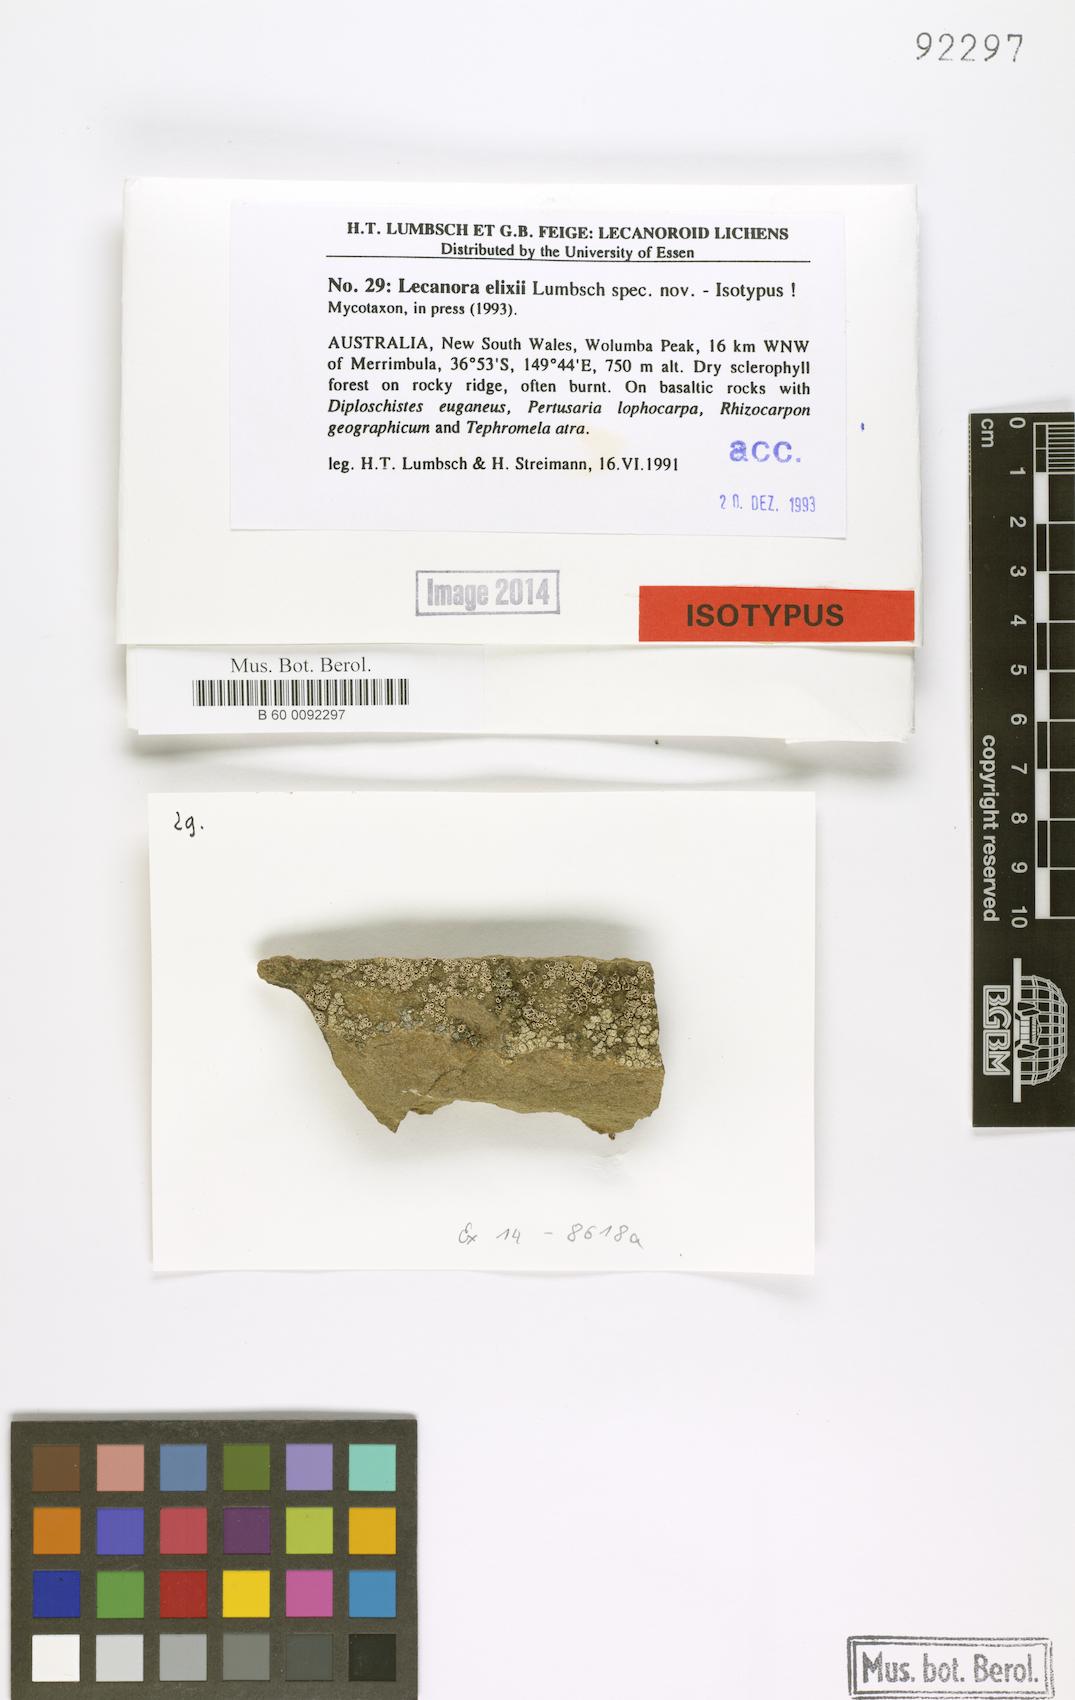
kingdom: Fungi
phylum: Ascomycota
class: Lecanoromycetes
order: Lecanorales
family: Lecanoraceae
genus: Lecanora
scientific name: Lecanora elixii
